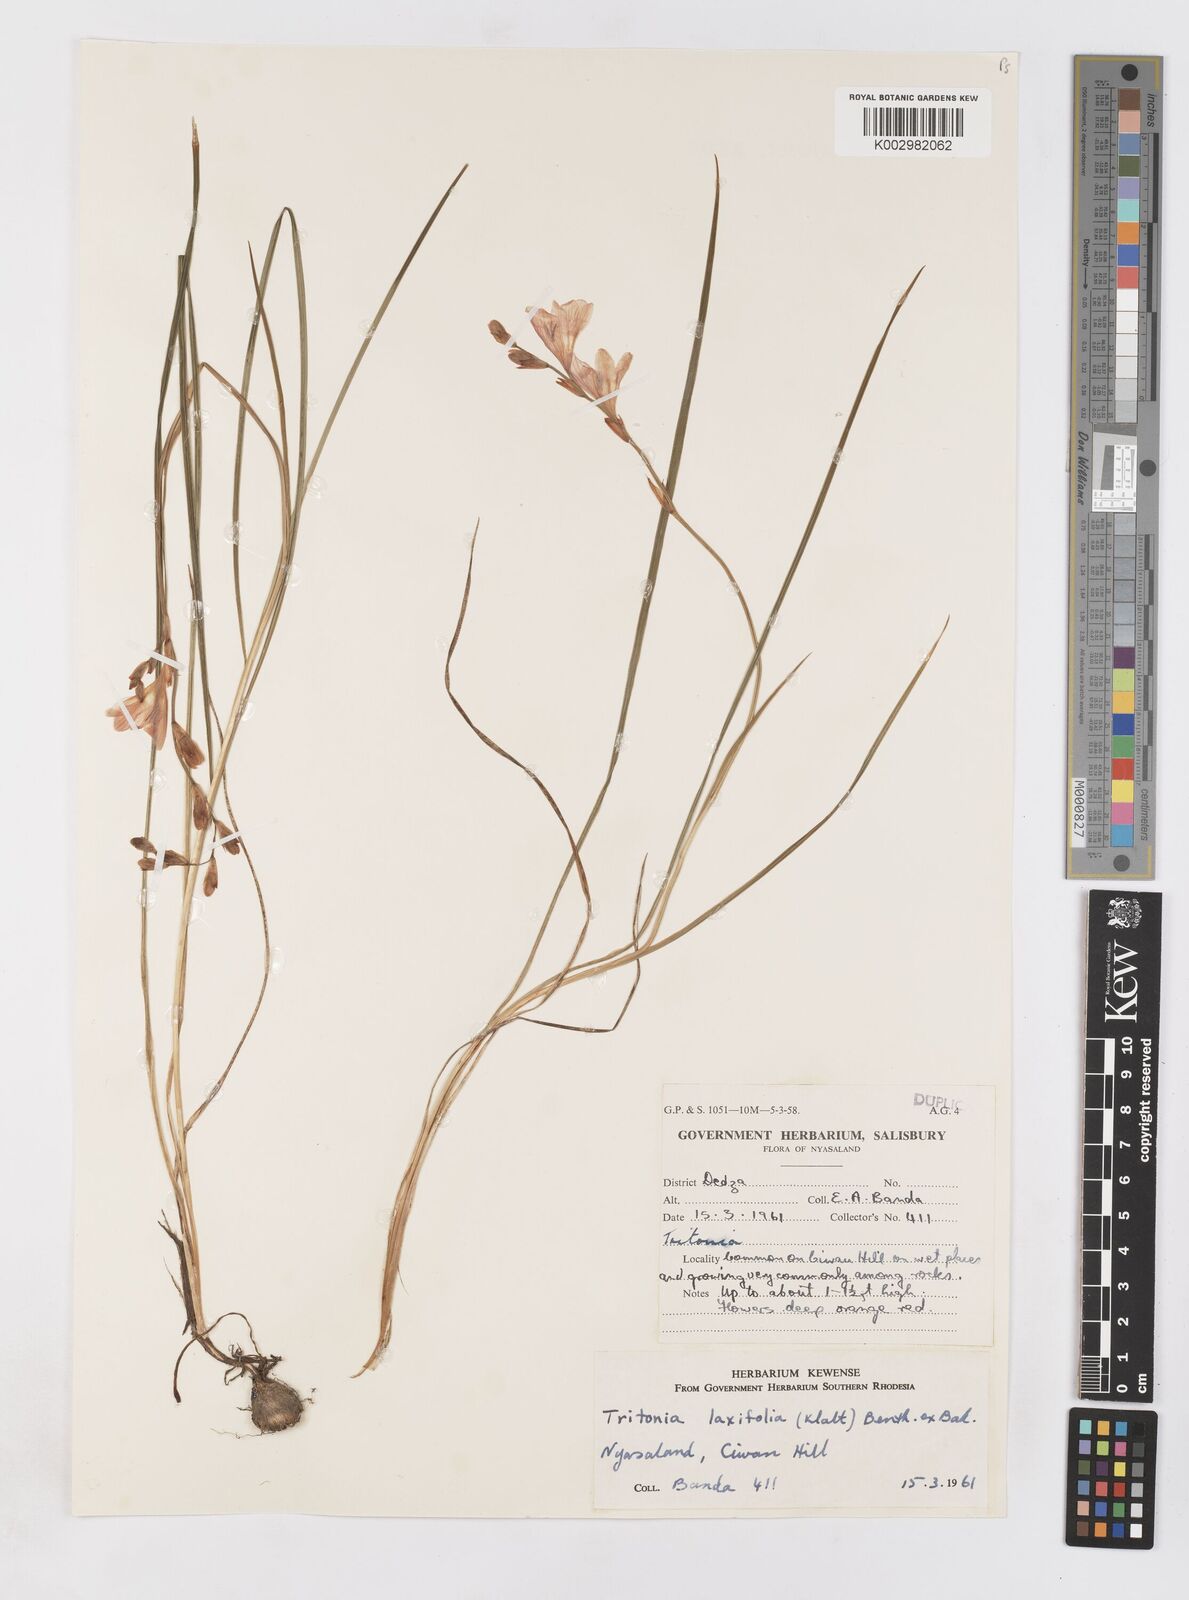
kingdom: Plantae
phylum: Tracheophyta
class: Liliopsida
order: Asparagales
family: Iridaceae
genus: Tritonia
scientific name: Tritonia laxifolia
